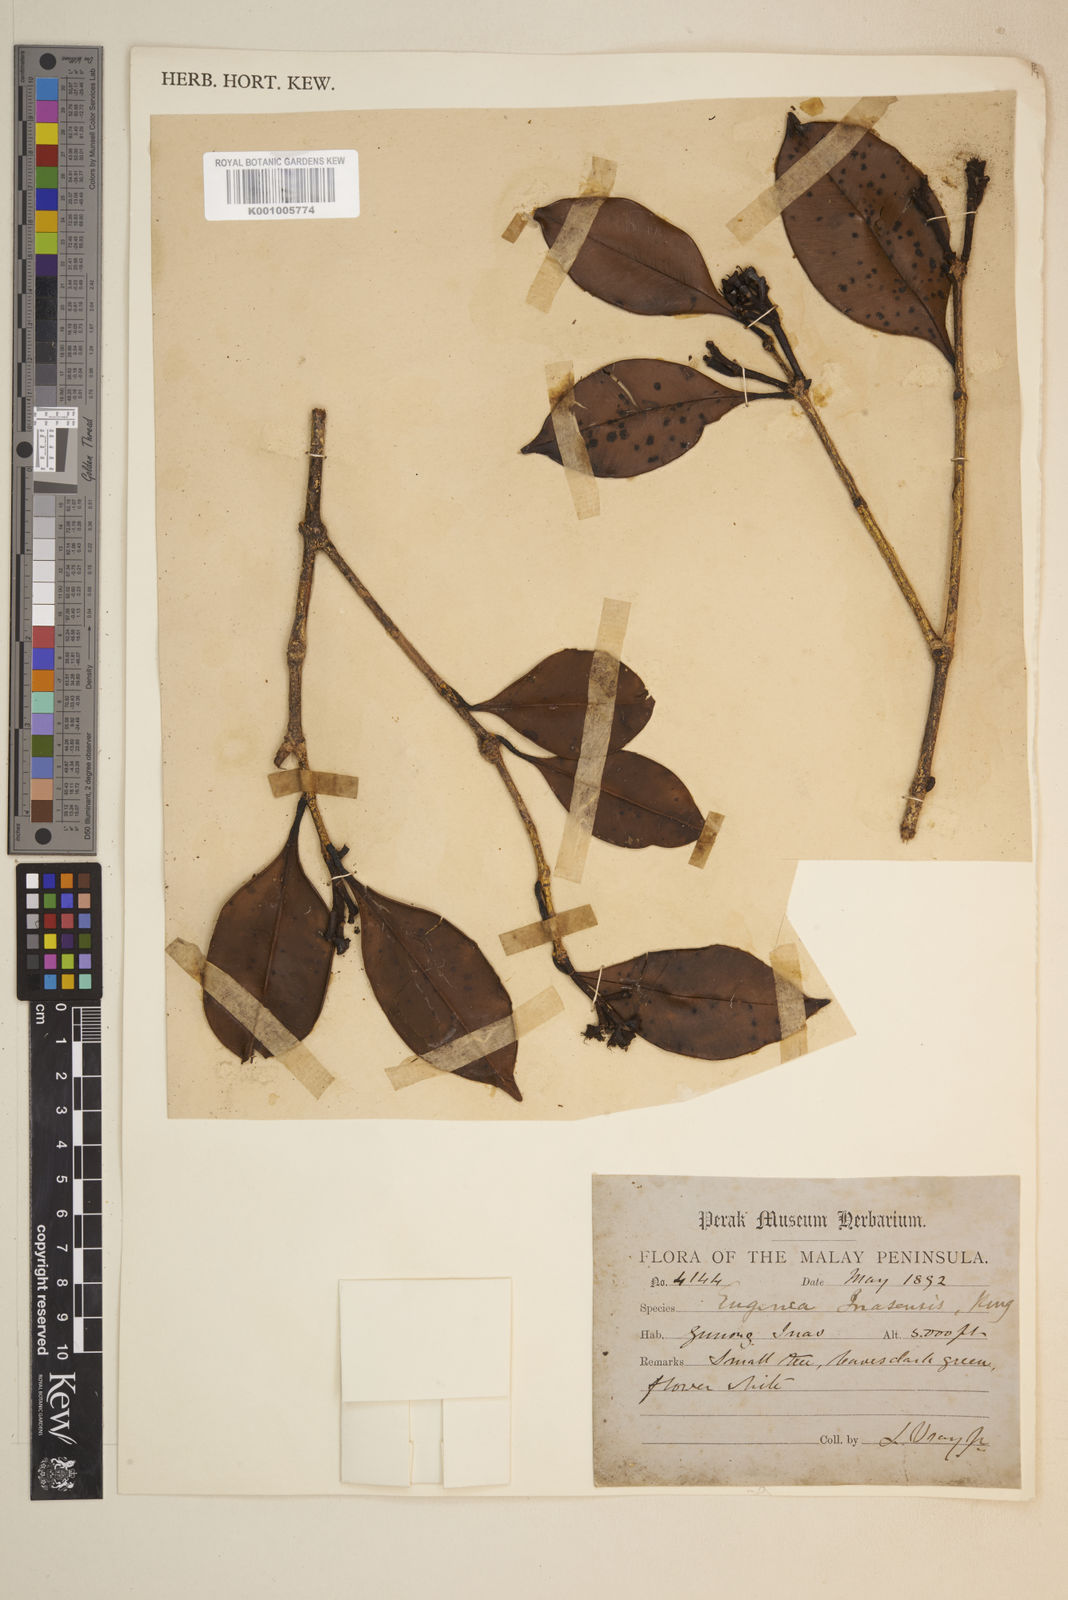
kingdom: Plantae
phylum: Tracheophyta
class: Magnoliopsida
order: Myrtales
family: Myrtaceae
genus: Syzygium
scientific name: Syzygium inasense
